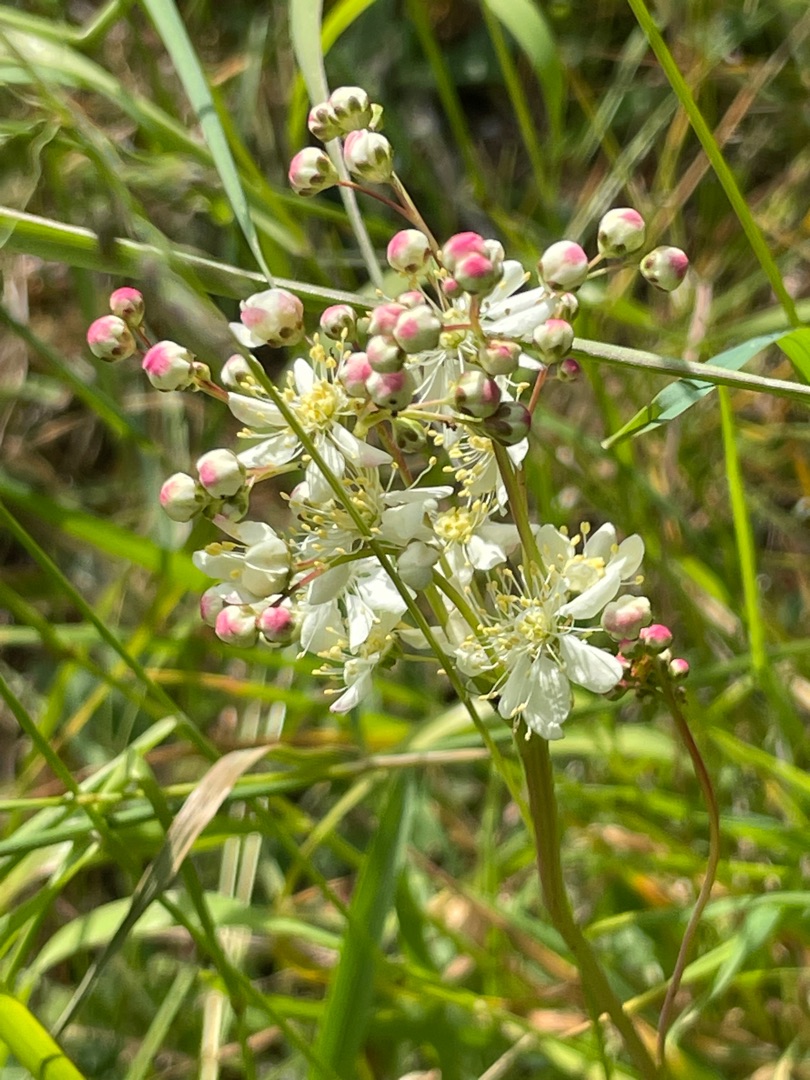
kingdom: Plantae
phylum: Tracheophyta
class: Magnoliopsida
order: Rosales
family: Rosaceae
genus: Filipendula
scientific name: Filipendula vulgaris
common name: Knoldet mjødurt
